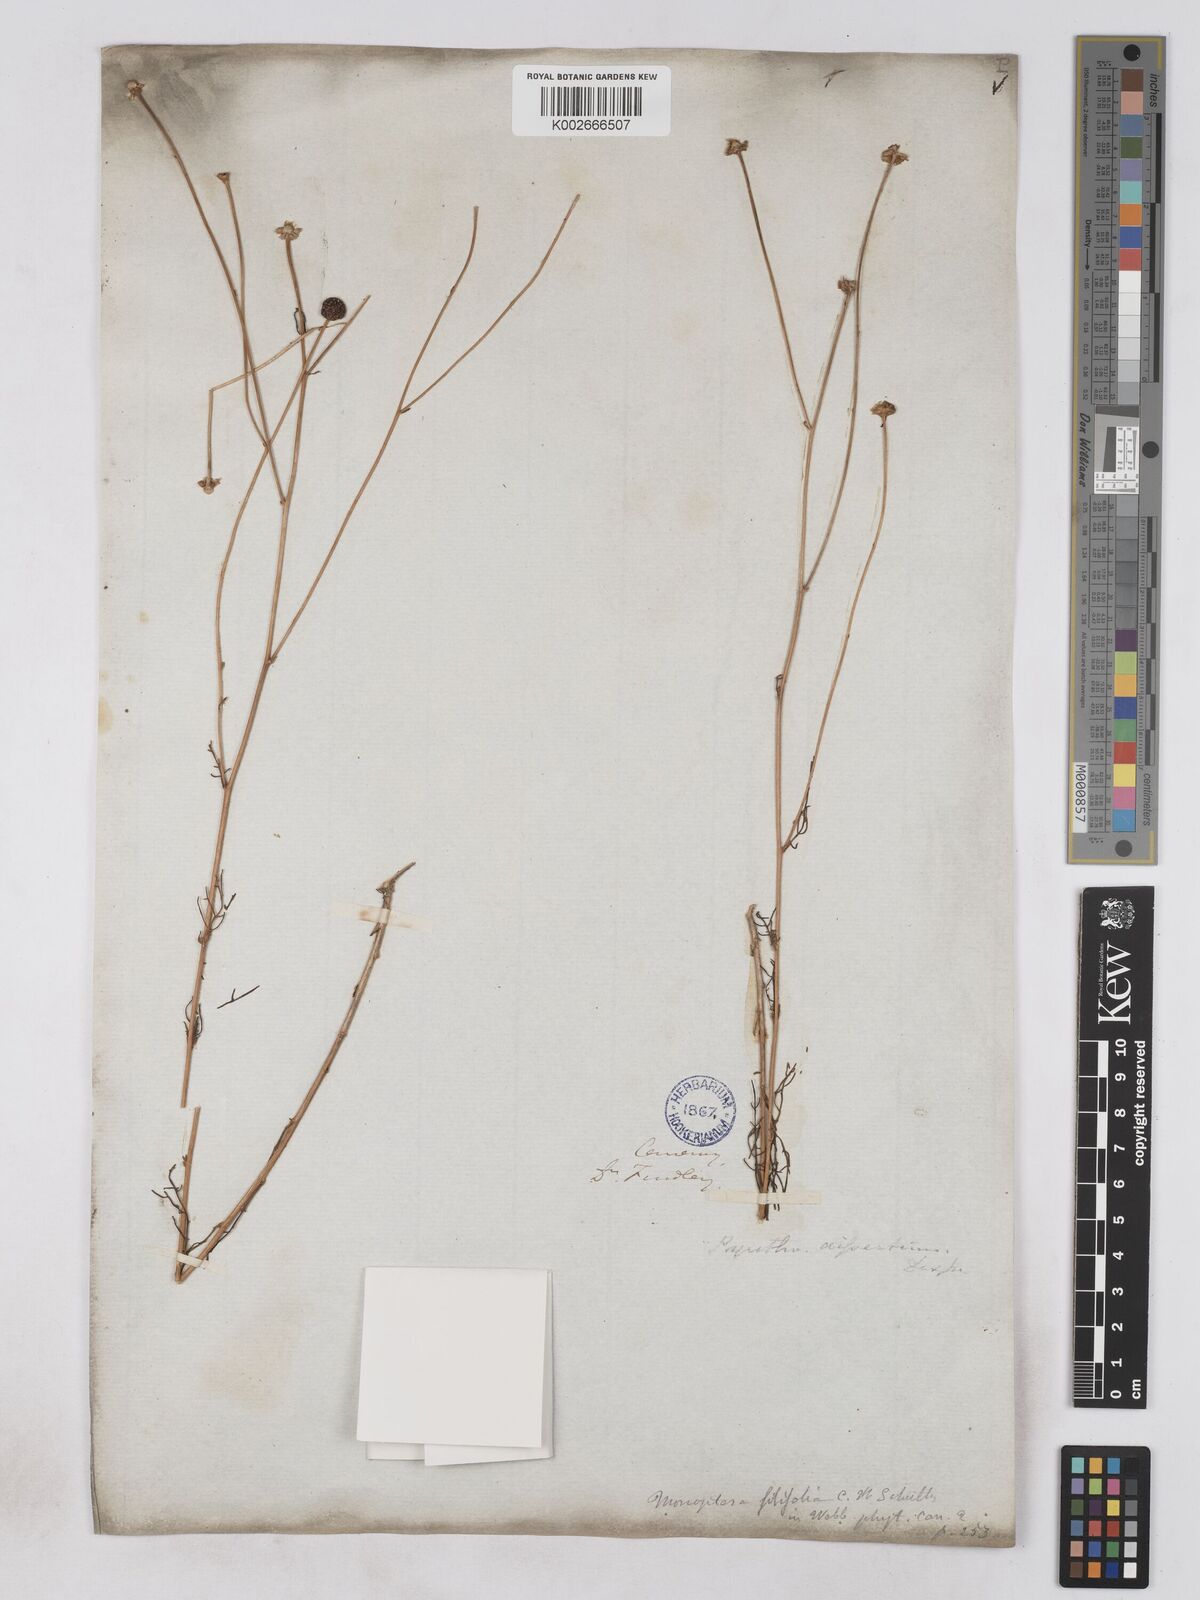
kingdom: Plantae
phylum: Tracheophyta
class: Magnoliopsida
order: Asterales
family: Asteraceae
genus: Argyranthemum
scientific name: Argyranthemum filifolium
